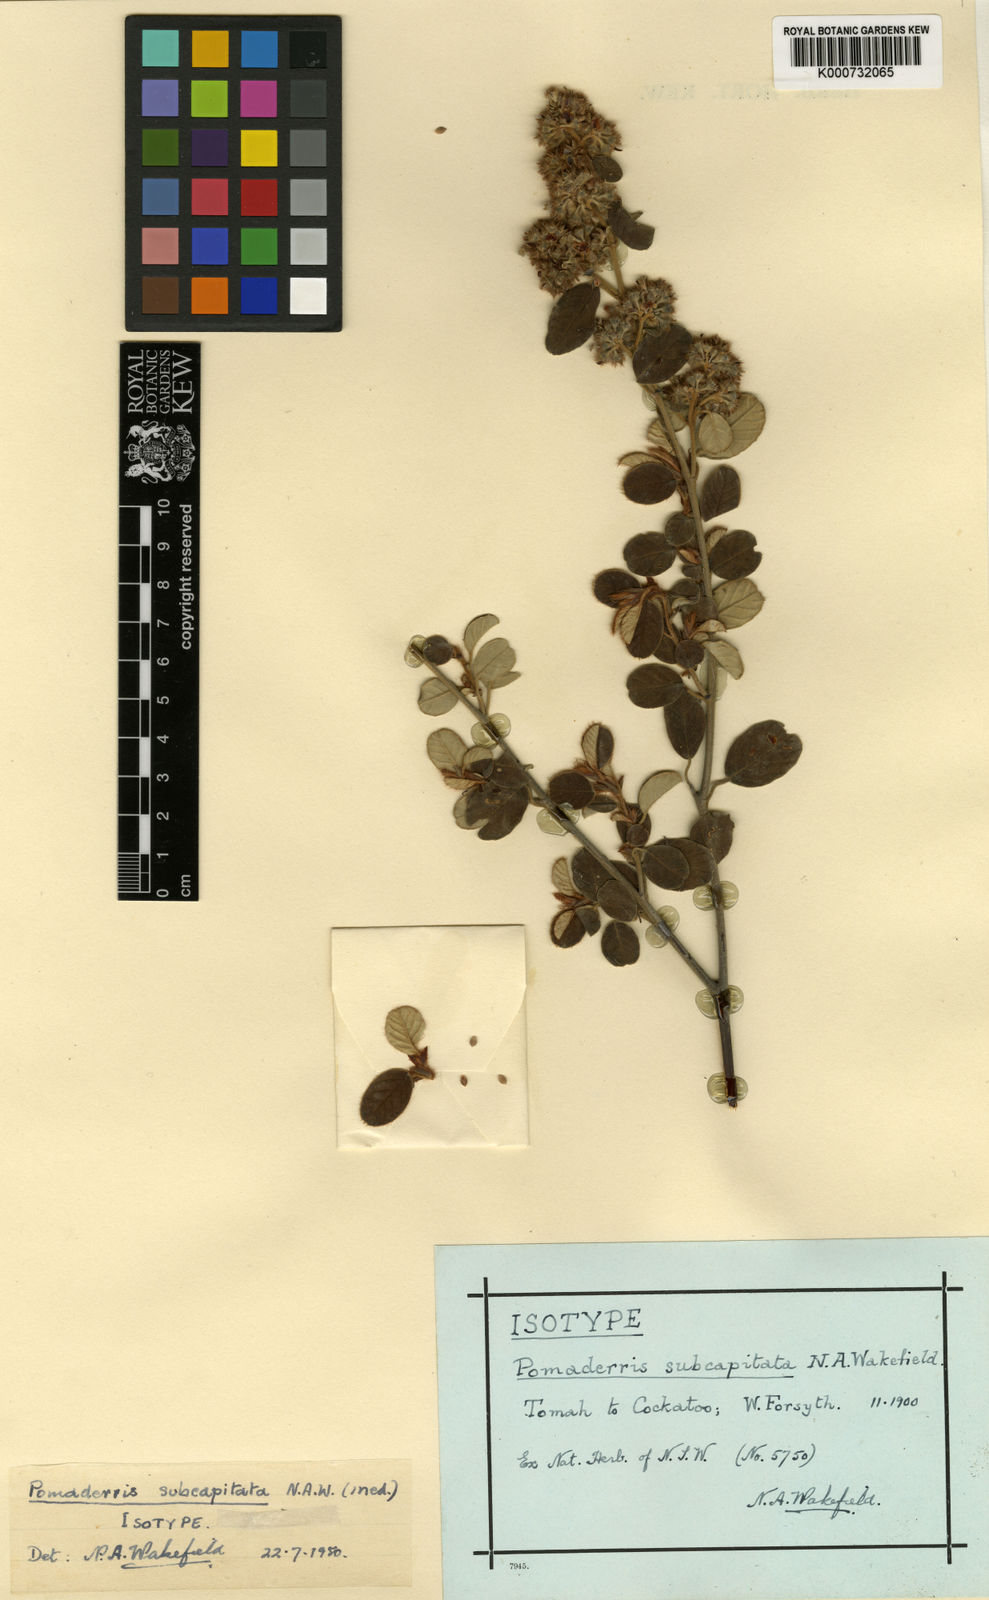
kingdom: Plantae
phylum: Tracheophyta
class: Magnoliopsida
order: Rosales
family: Rhamnaceae
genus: Pomaderris
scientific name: Pomaderris subcapitata
